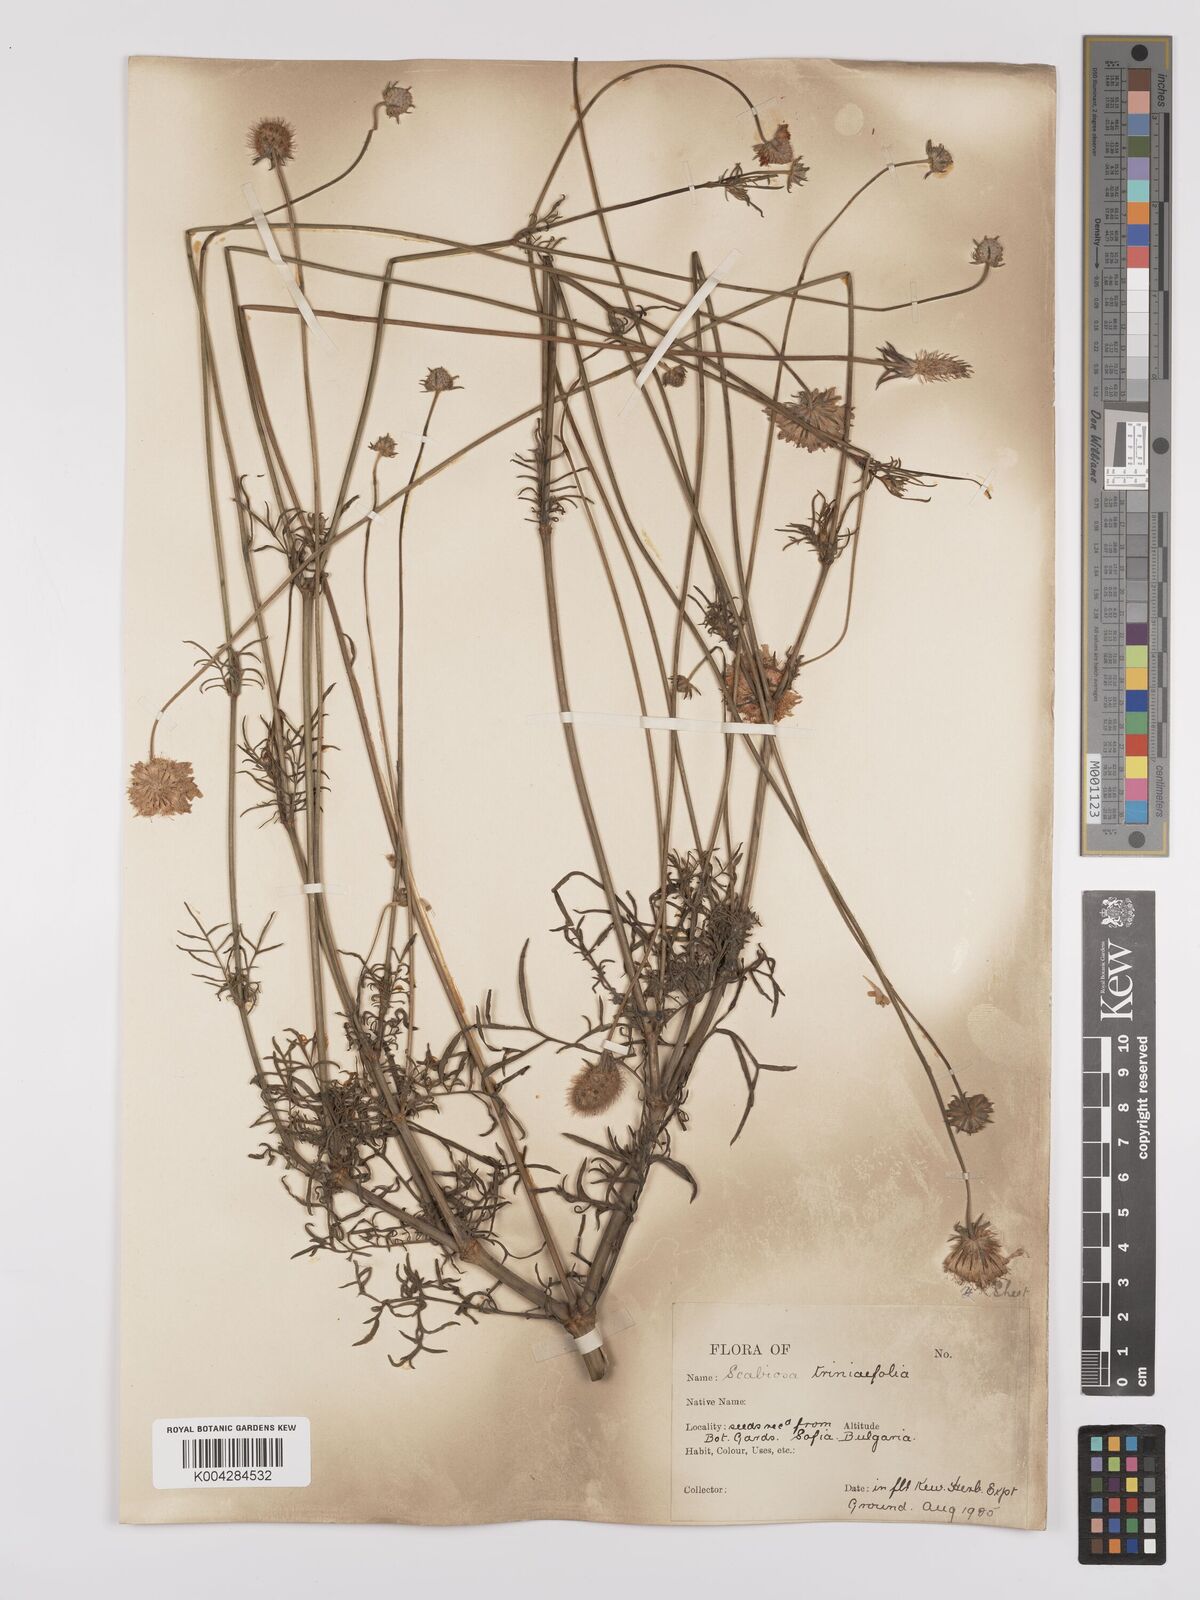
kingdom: Plantae
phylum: Tracheophyta
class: Magnoliopsida
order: Dipsacales
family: Caprifoliaceae
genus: Scabiosa
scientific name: Scabiosa triniifolia
